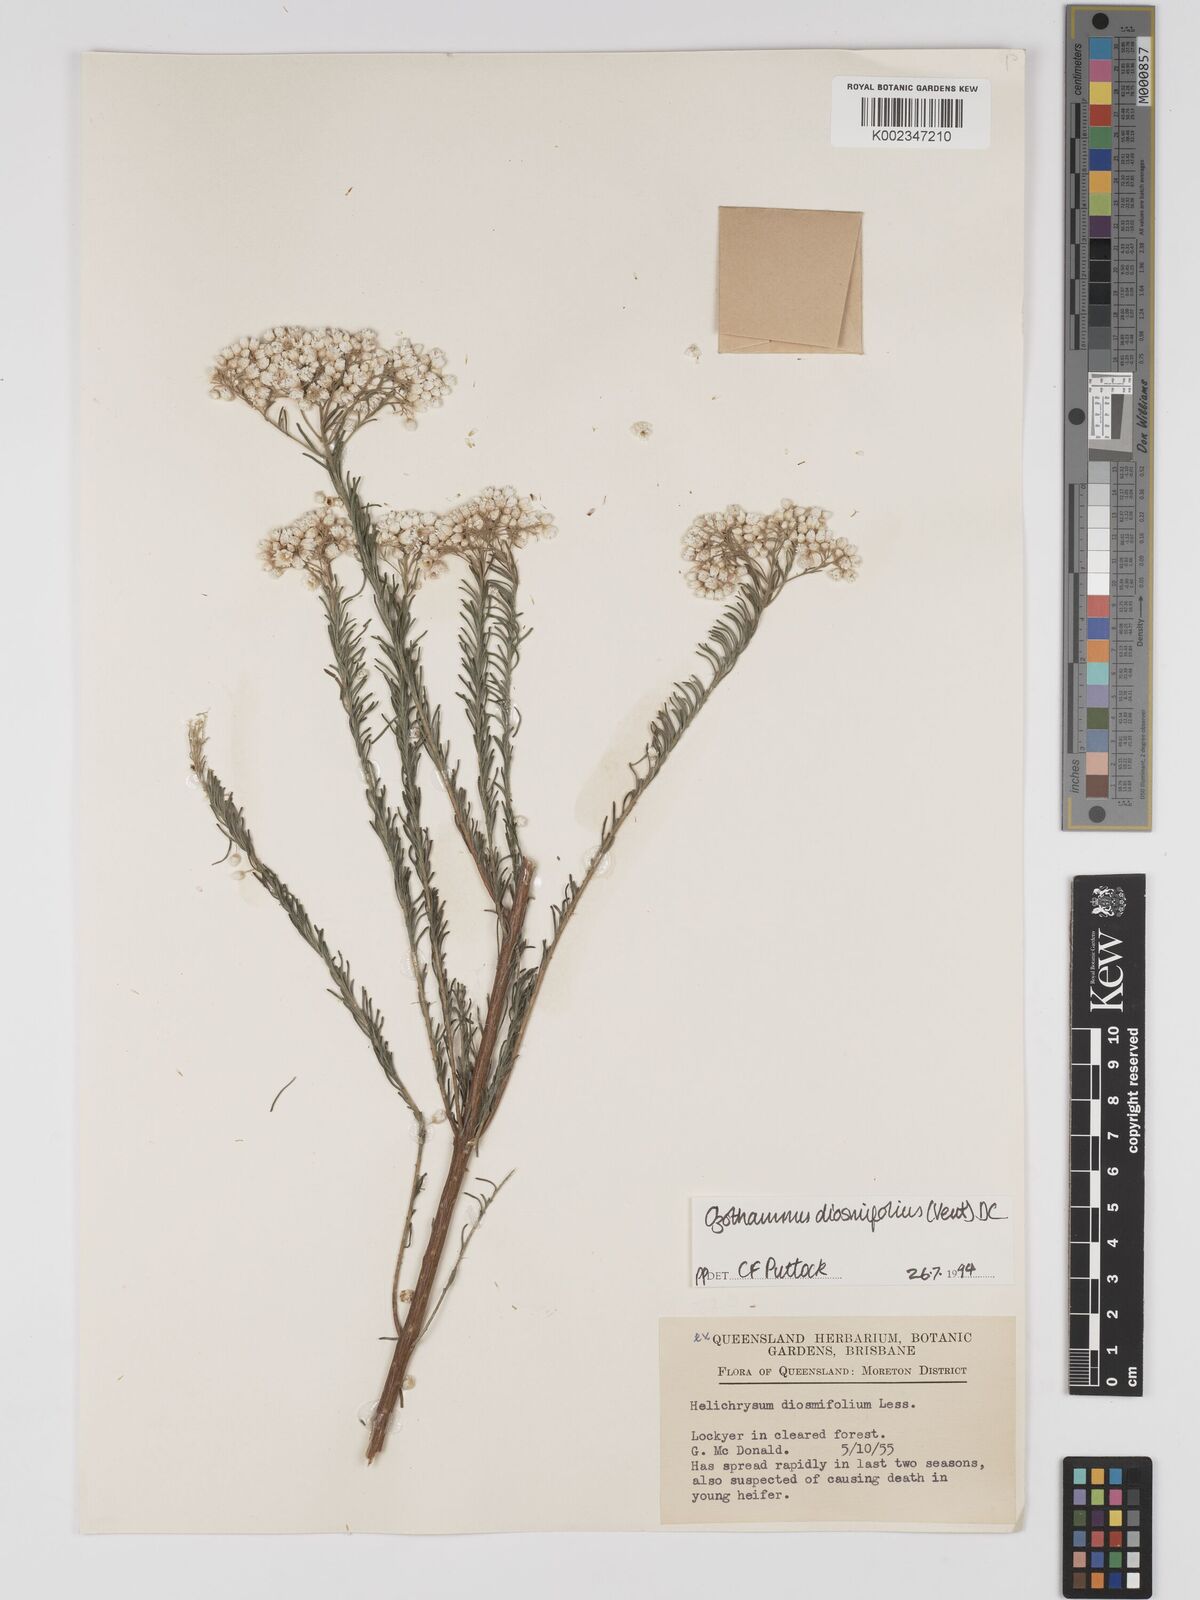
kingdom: Plantae
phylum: Tracheophyta
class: Magnoliopsida
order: Asterales
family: Asteraceae
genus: Ozothamnus
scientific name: Ozothamnus diosmifolius
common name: White-dogwood
